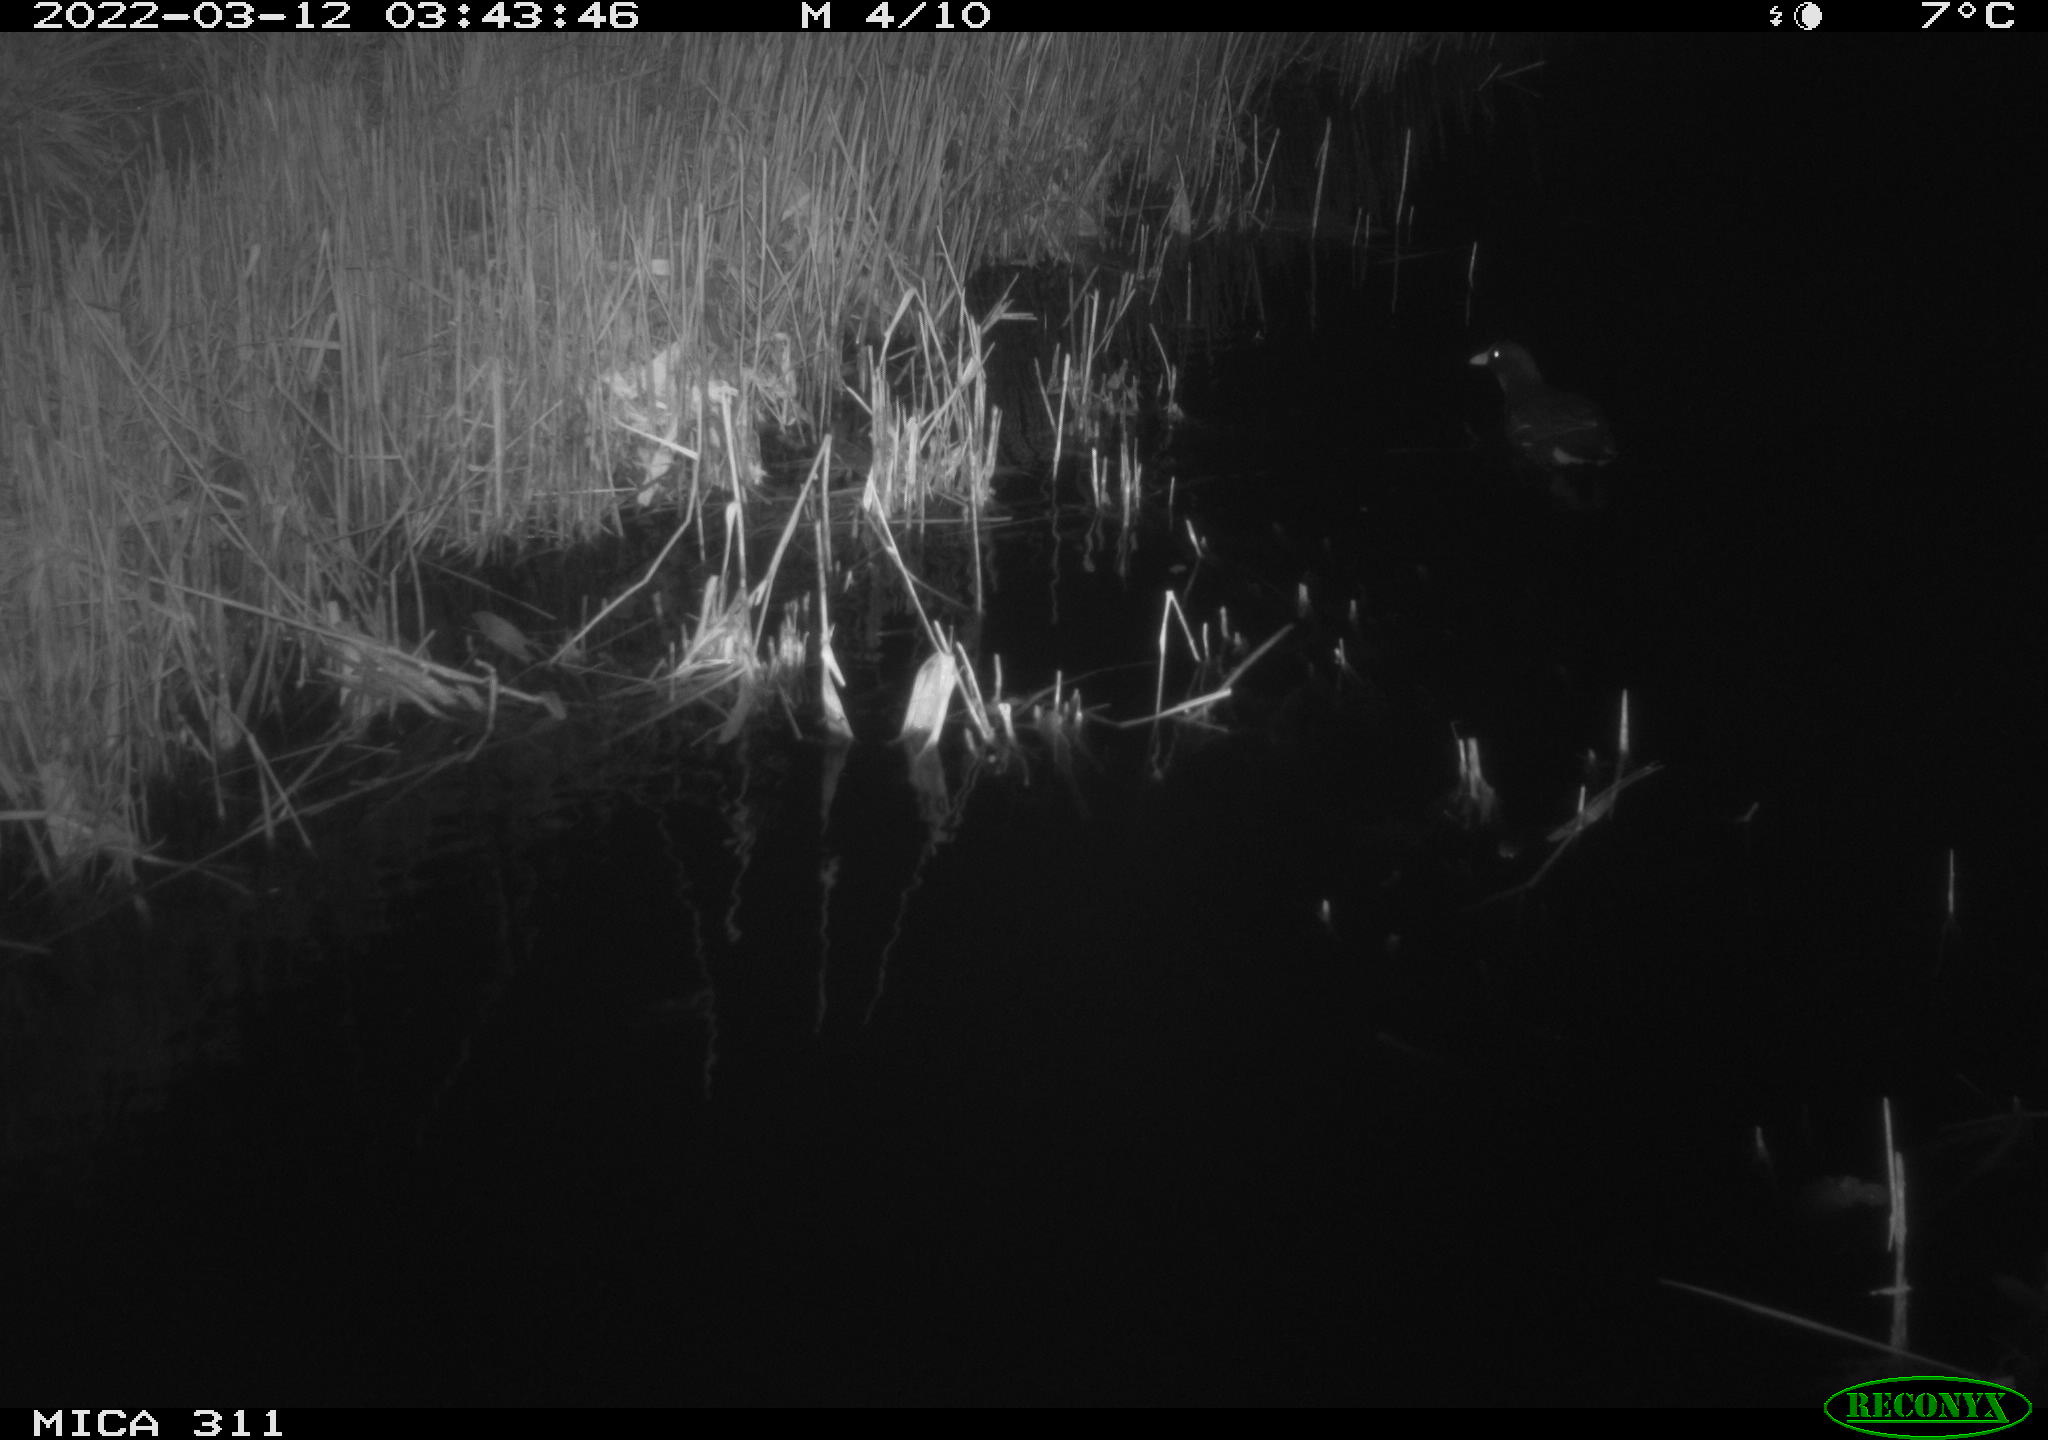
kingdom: Animalia
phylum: Chordata
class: Aves
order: Gruiformes
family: Rallidae
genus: Gallinula
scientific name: Gallinula chloropus
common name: Common moorhen
